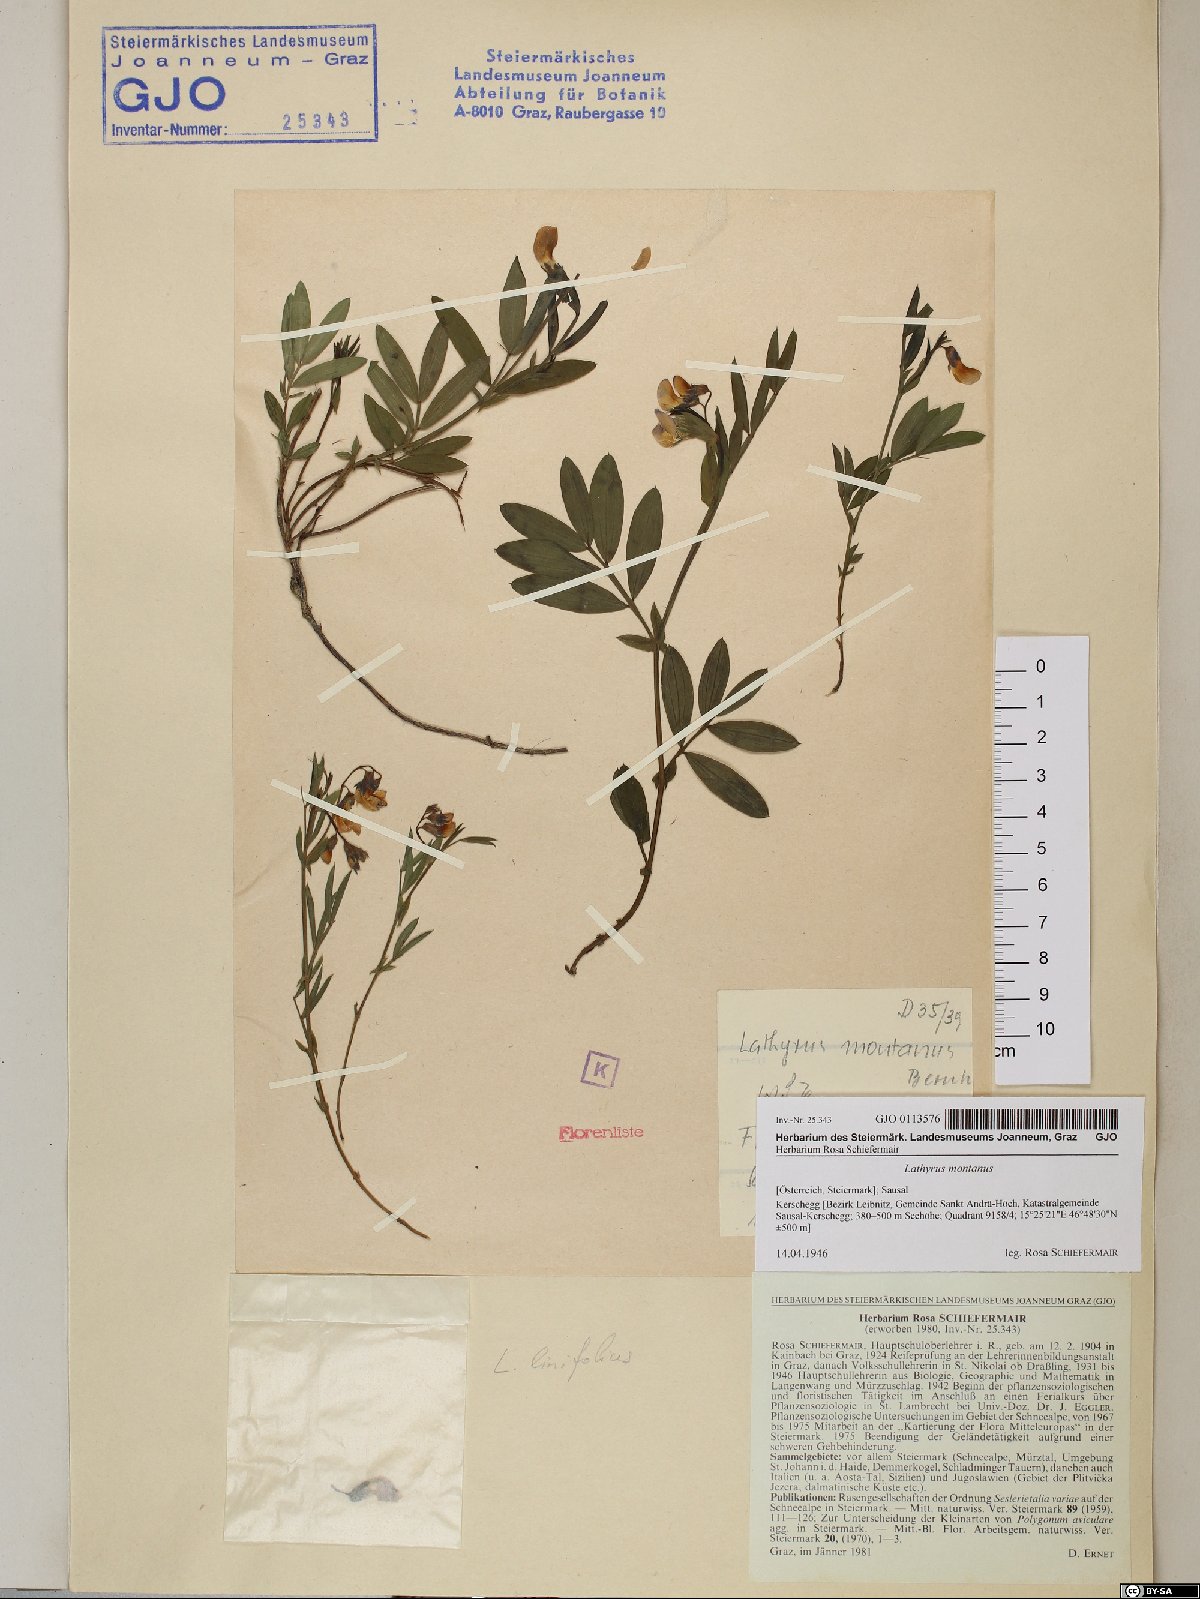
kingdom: Plantae
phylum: Tracheophyta
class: Magnoliopsida
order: Fabales
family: Fabaceae
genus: Lathyrus
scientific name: Lathyrus linifolius
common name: Bitter-vetch
